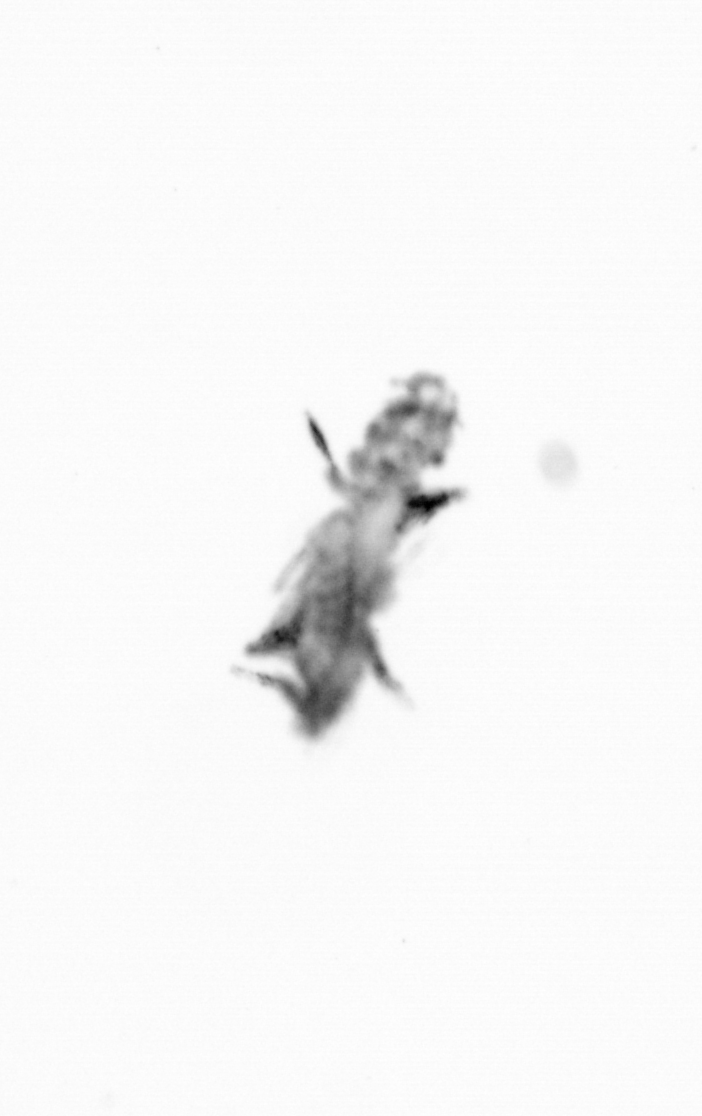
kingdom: Animalia
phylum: Annelida
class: Polychaeta
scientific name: Polychaeta
